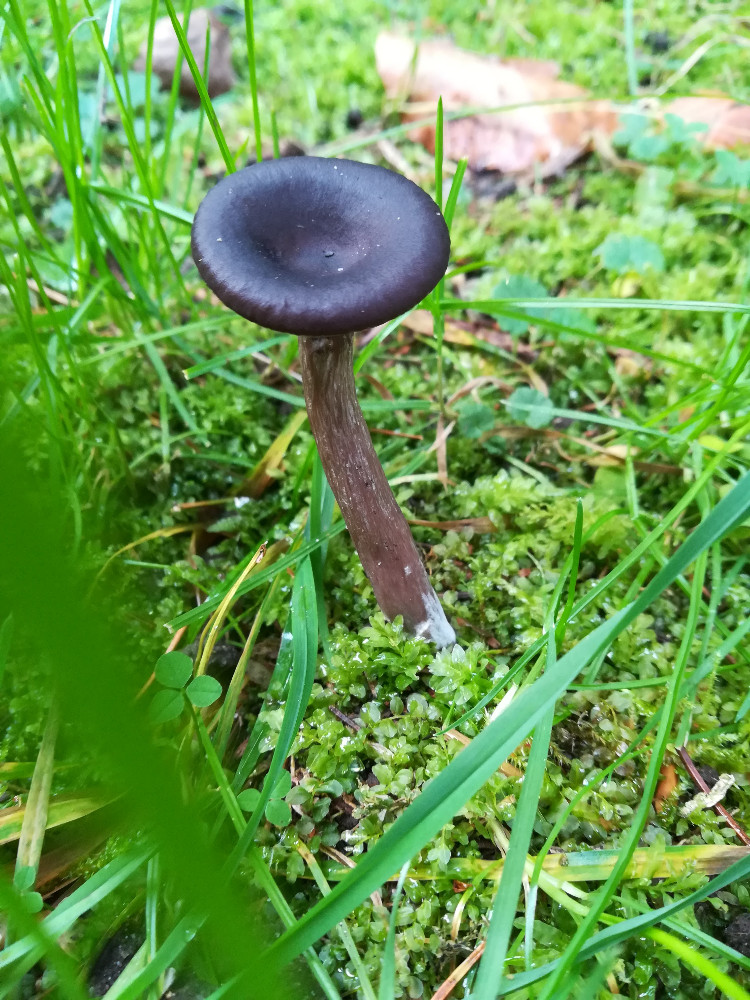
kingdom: Fungi
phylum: Basidiomycota
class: Agaricomycetes
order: Agaricales
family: Pseudoclitocybaceae
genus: Pseudoclitocybe
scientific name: Pseudoclitocybe cyathiformis
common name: almindelig bægertragthat
